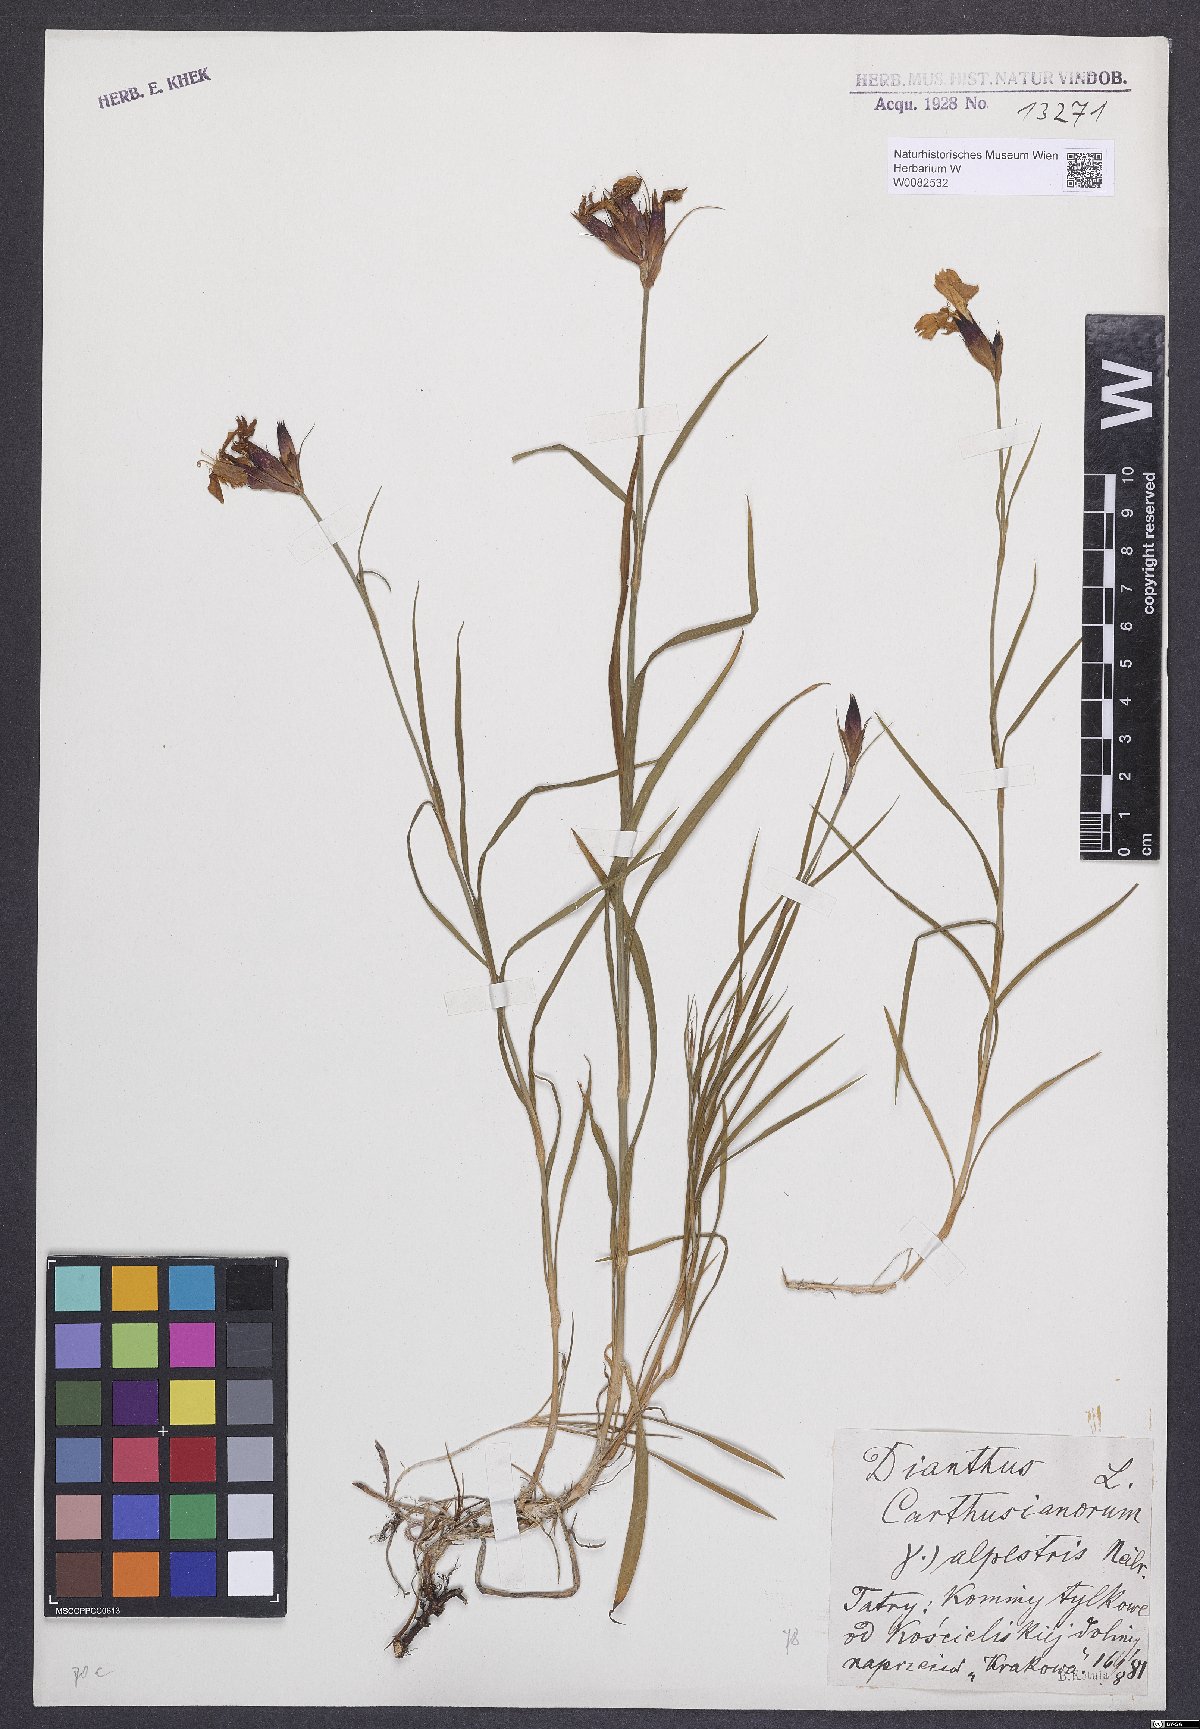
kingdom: Plantae
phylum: Tracheophyta
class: Magnoliopsida
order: Caryophyllales
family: Caryophyllaceae
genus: Dianthus
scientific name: Dianthus carthusianorum
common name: Carthusian pink
